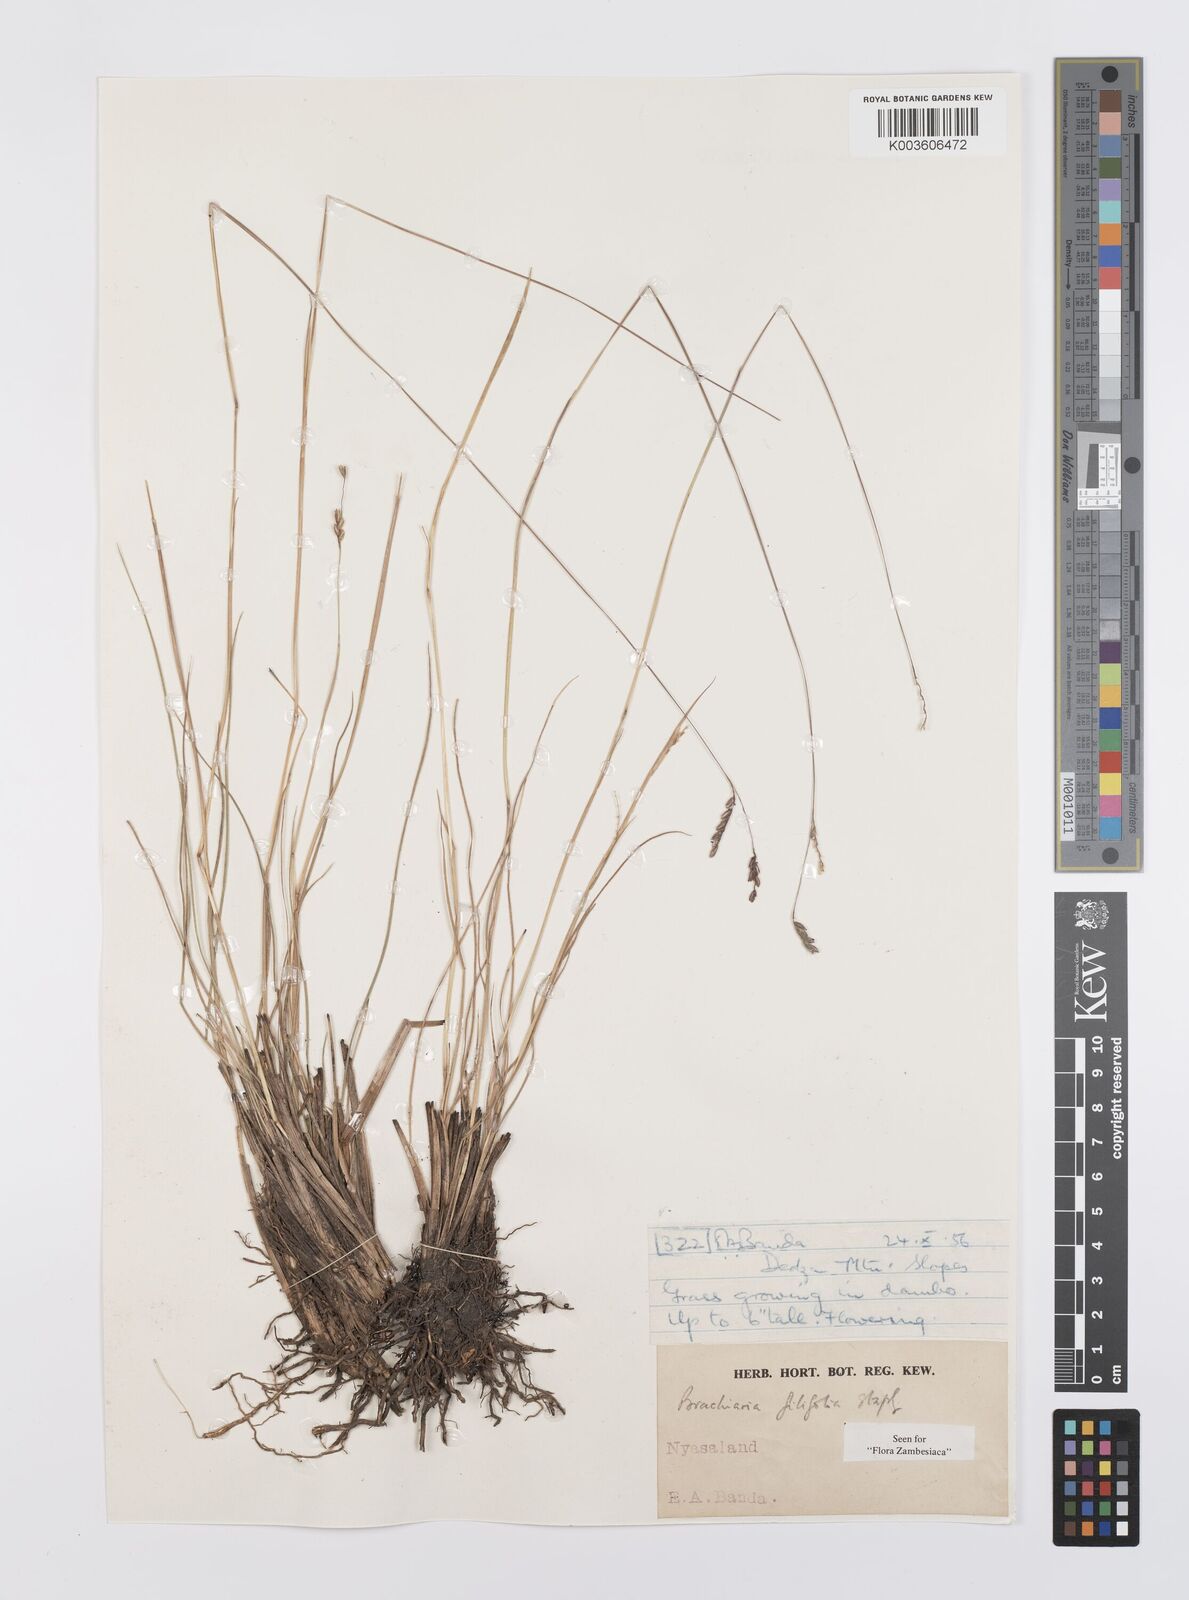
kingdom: Plantae
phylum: Tracheophyta
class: Liliopsida
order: Poales
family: Poaceae
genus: Urochloa
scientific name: Urochloa subulifolia
